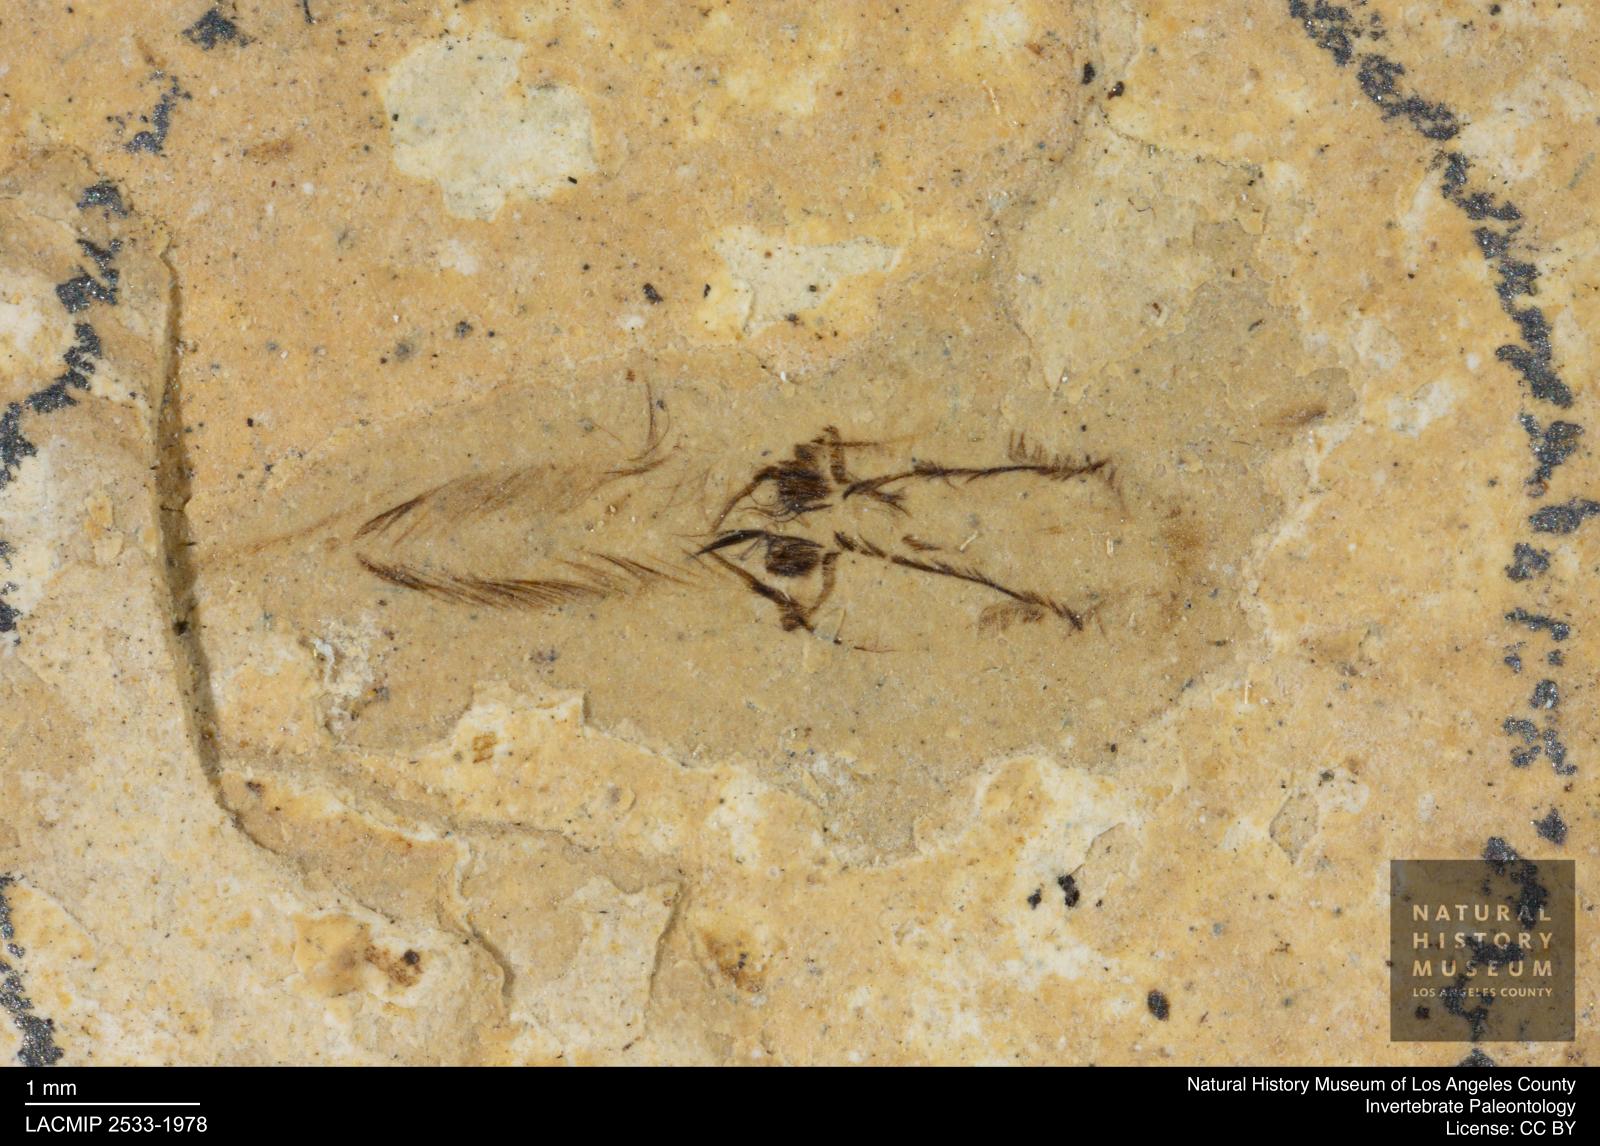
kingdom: Animalia
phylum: Arthropoda
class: Insecta
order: Hemiptera
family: Notonectidae
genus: Anisops
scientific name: Anisops Notonecta deichmuelleri
